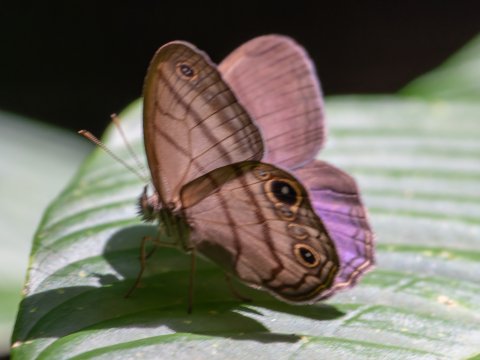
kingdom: Animalia
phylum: Arthropoda
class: Insecta
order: Lepidoptera
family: Nymphalidae
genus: Amiga
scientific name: Amiga arnaca
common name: Blue-topped Satyr
